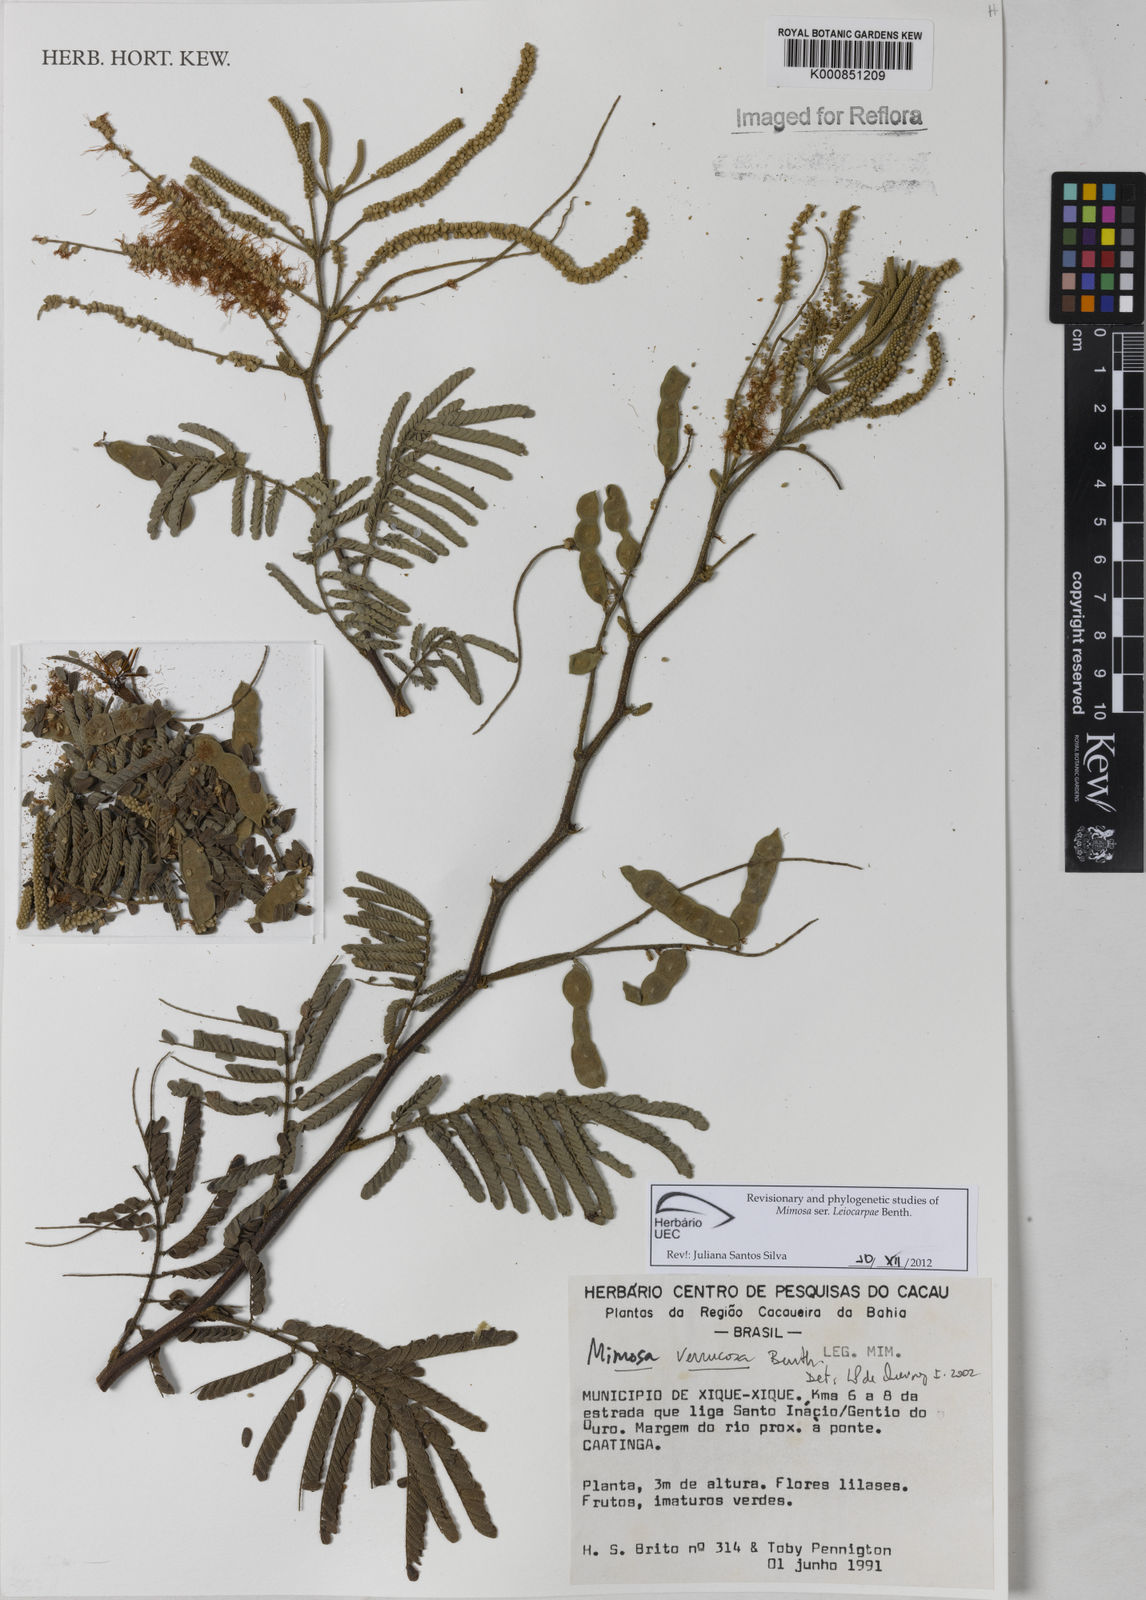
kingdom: Plantae
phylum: Tracheophyta
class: Magnoliopsida
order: Fabales
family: Fabaceae
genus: Mimosa
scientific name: Mimosa verrucosa
